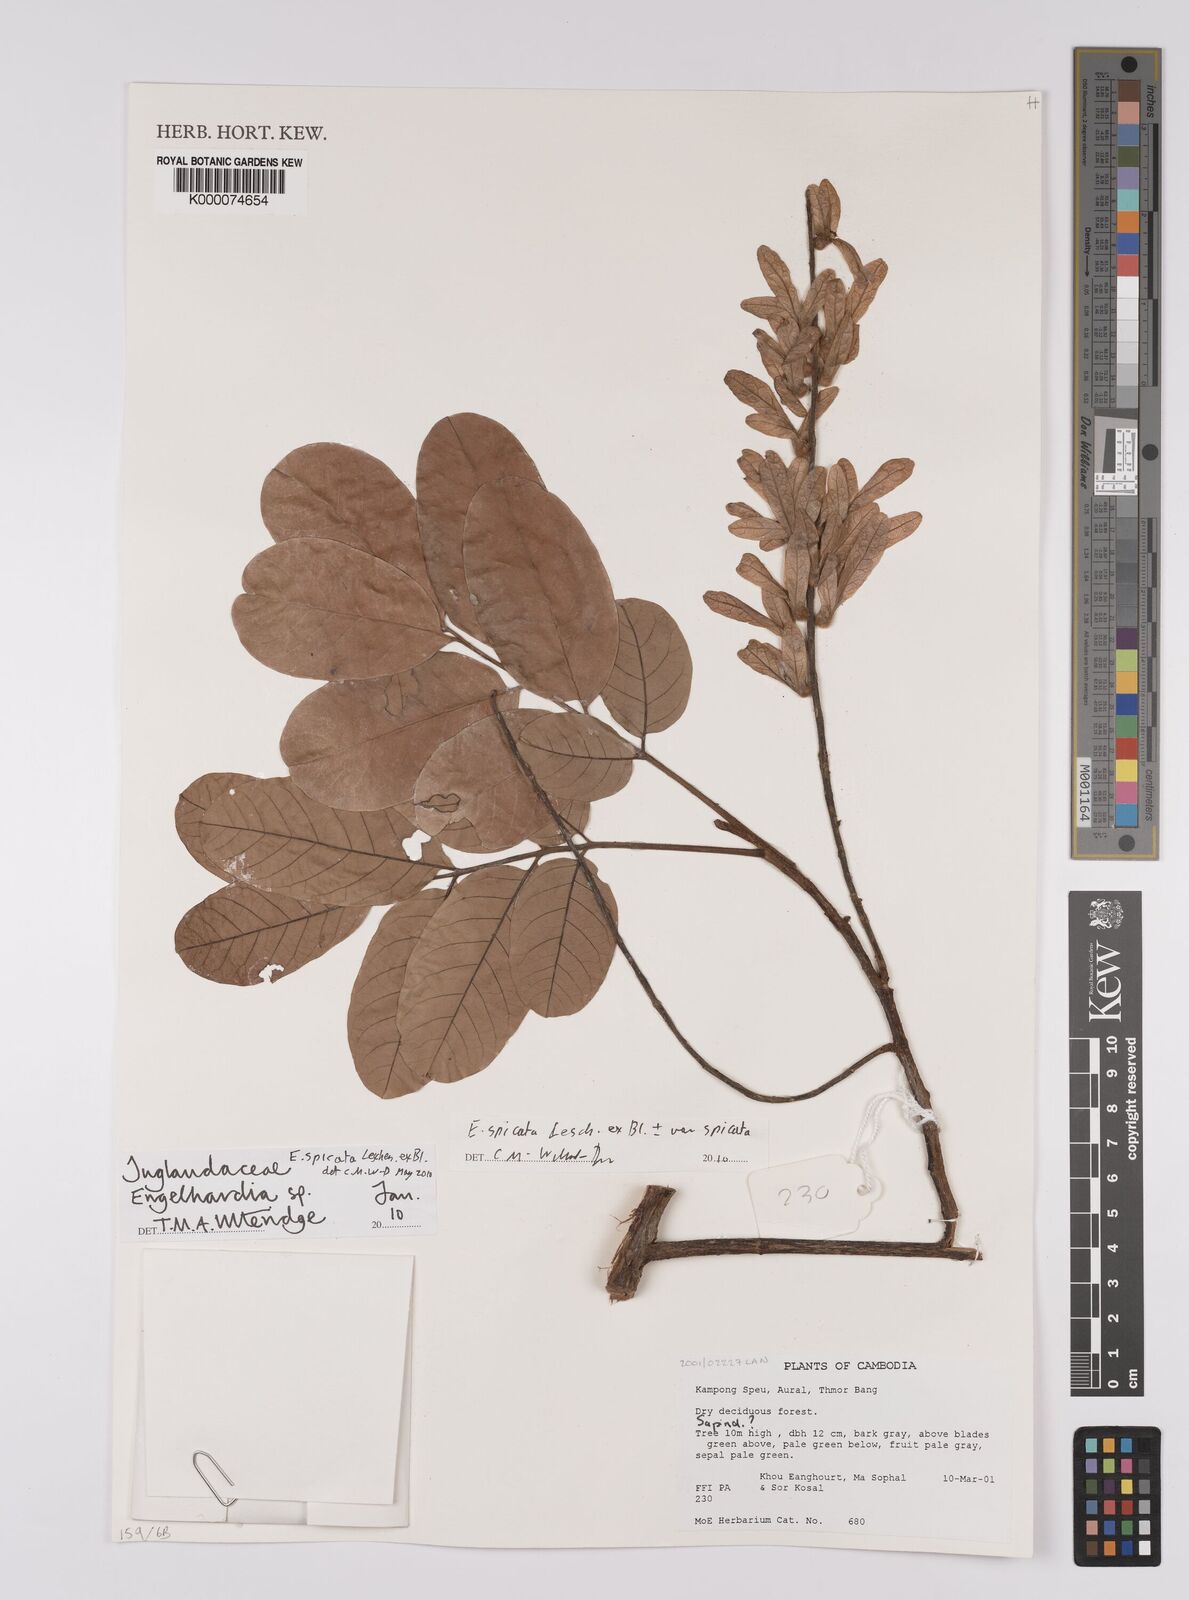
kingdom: Plantae
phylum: Tracheophyta
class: Magnoliopsida
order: Fagales
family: Juglandaceae
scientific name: Juglandaceae
